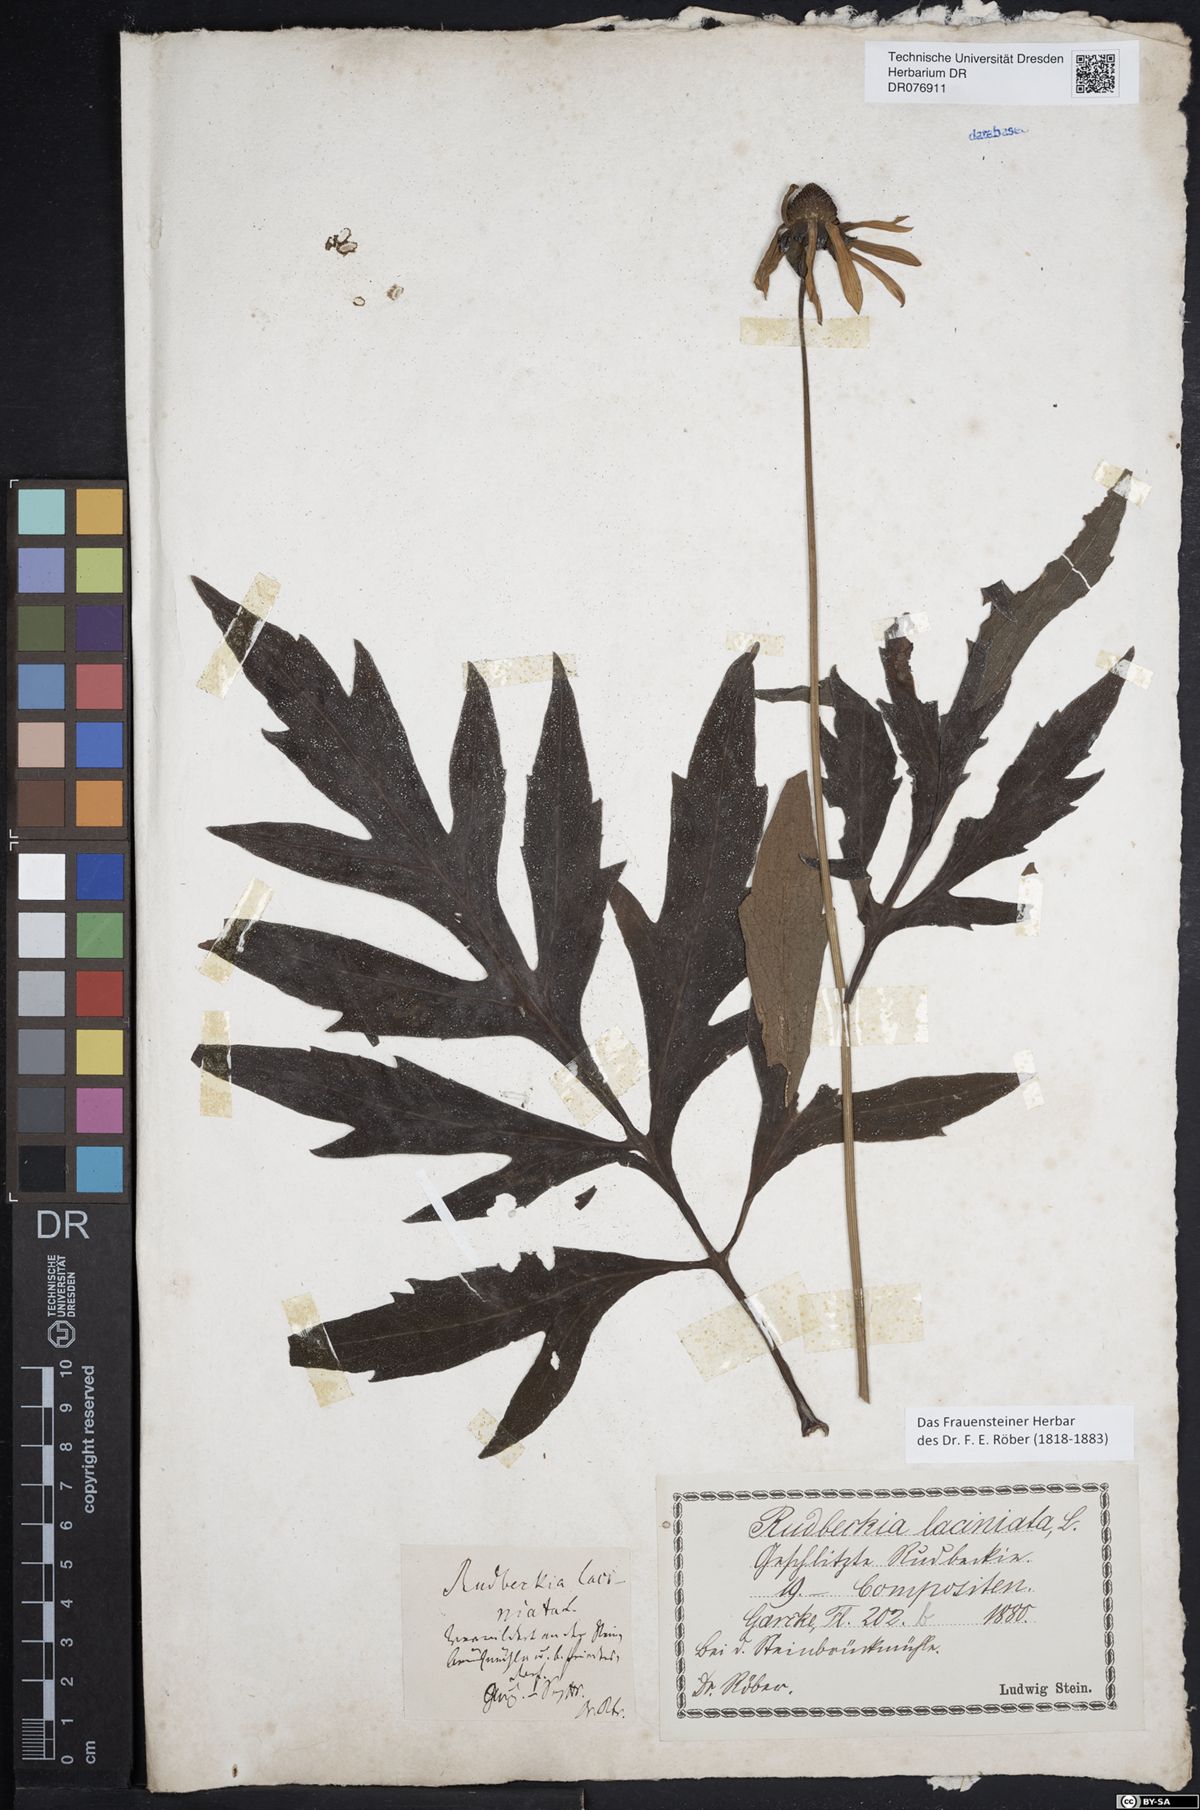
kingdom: Plantae
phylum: Tracheophyta
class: Magnoliopsida
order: Asterales
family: Asteraceae
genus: Rudbeckia
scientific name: Rudbeckia laciniata
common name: Coneflower
